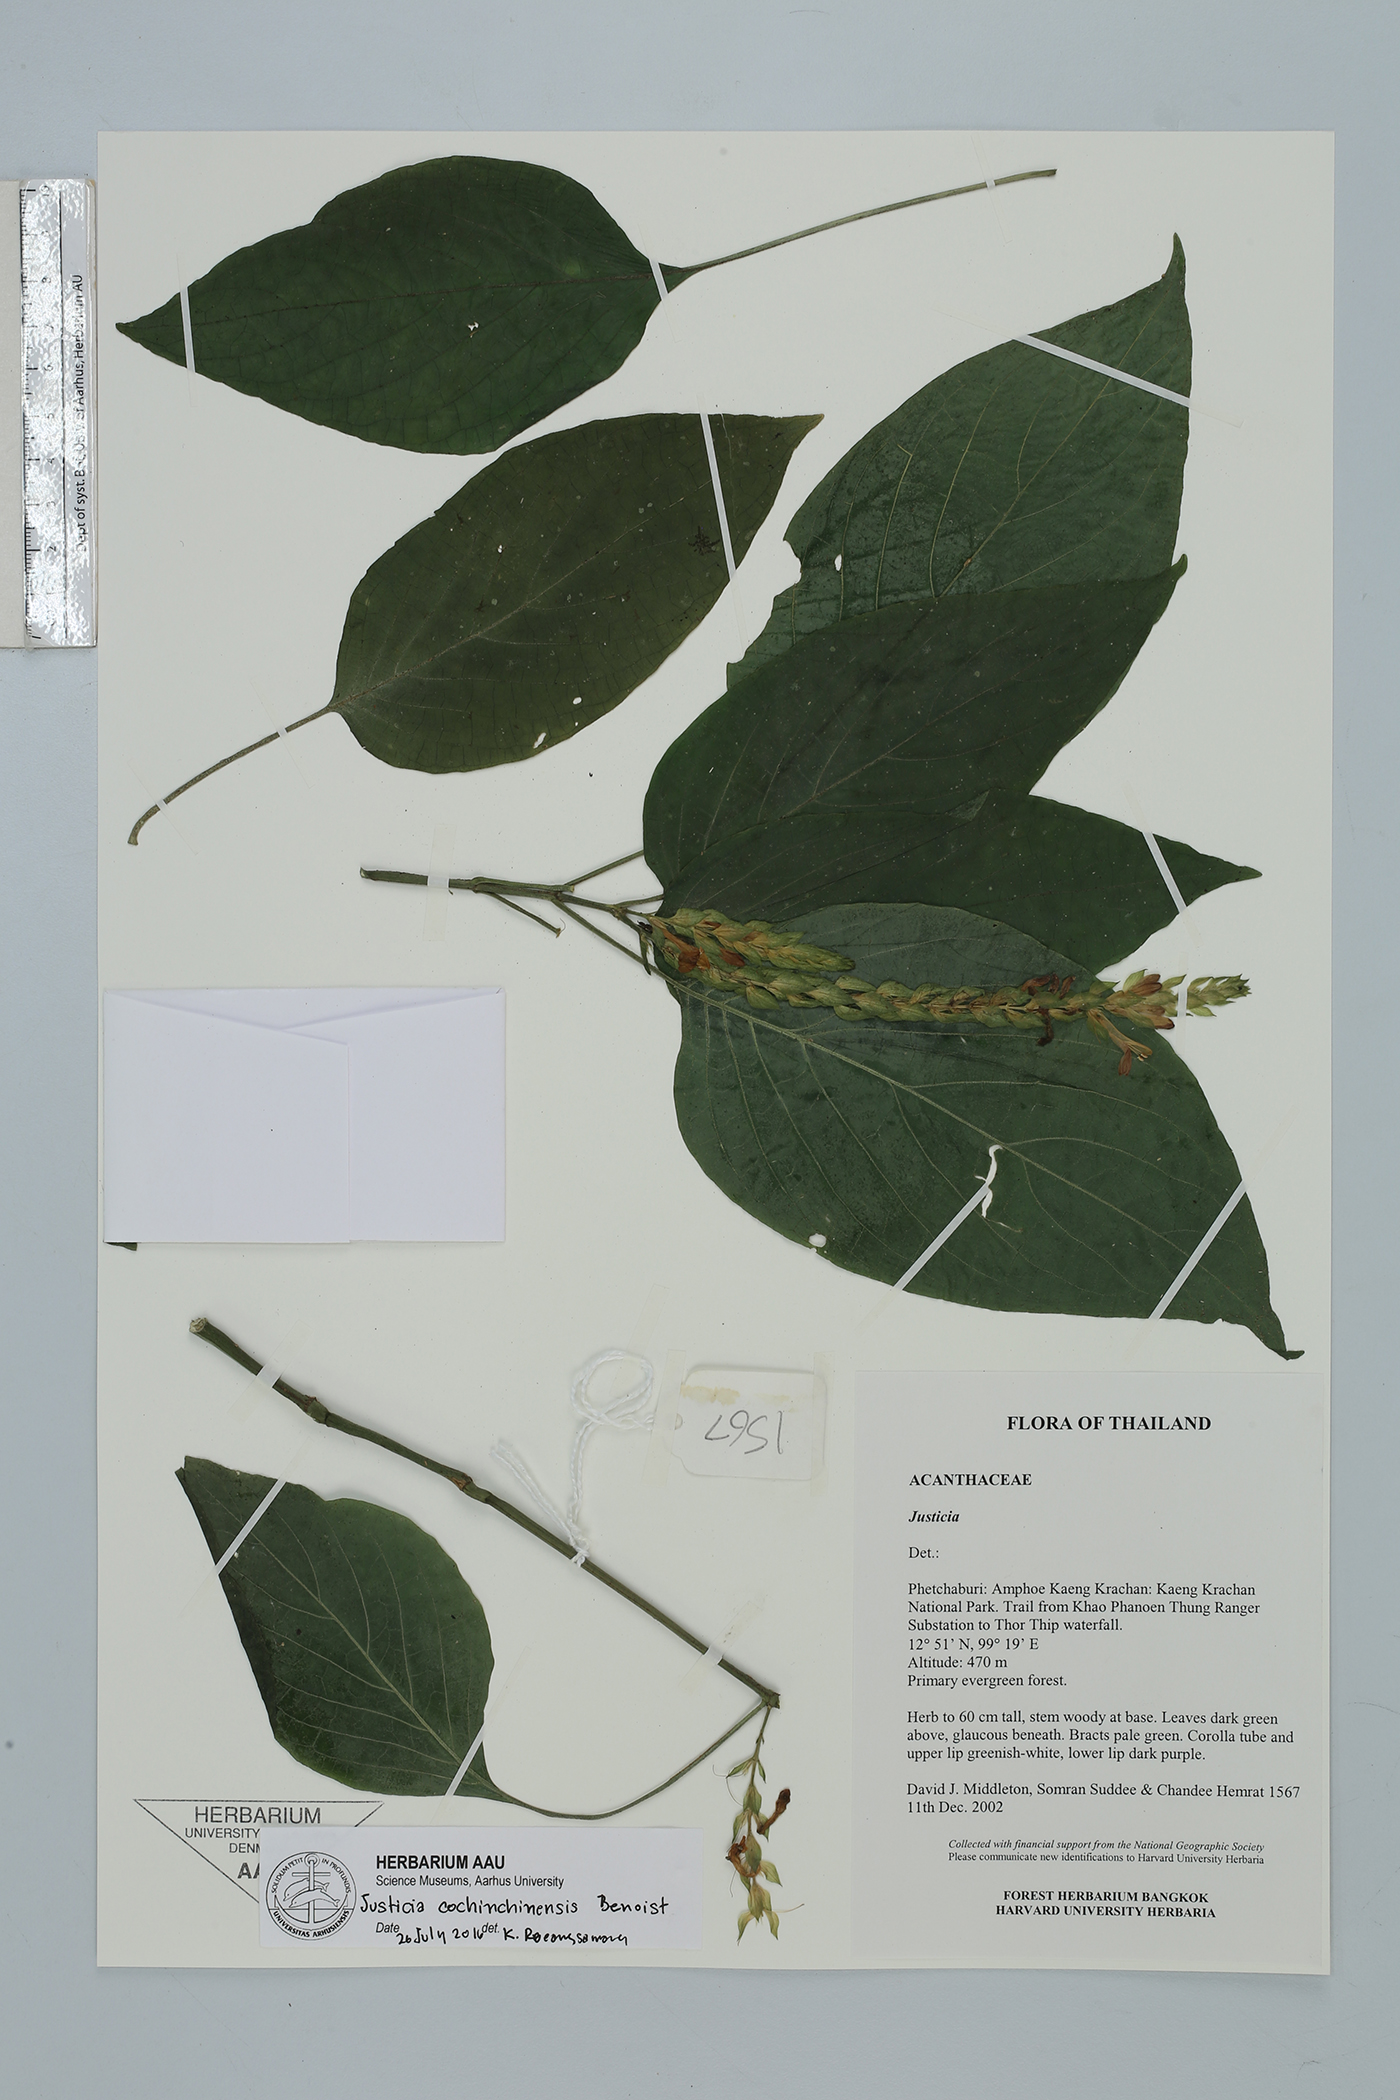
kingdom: Plantae
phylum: Tracheophyta
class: Magnoliopsida
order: Lamiales
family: Acanthaceae
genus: Justicia
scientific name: Justicia cochinchinensis
